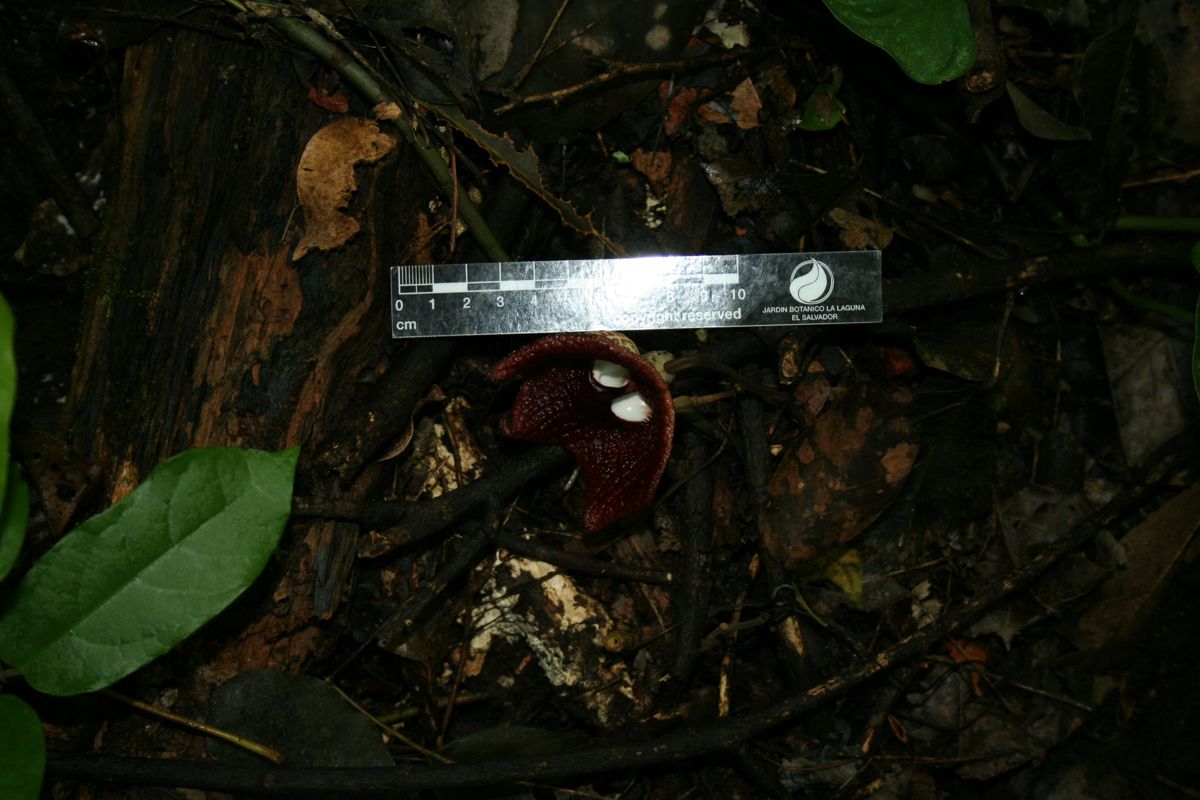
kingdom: Plantae
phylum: Tracheophyta
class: Magnoliopsida
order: Piperales
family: Aristolochiaceae
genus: Isotrema
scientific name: Isotrema arborea
